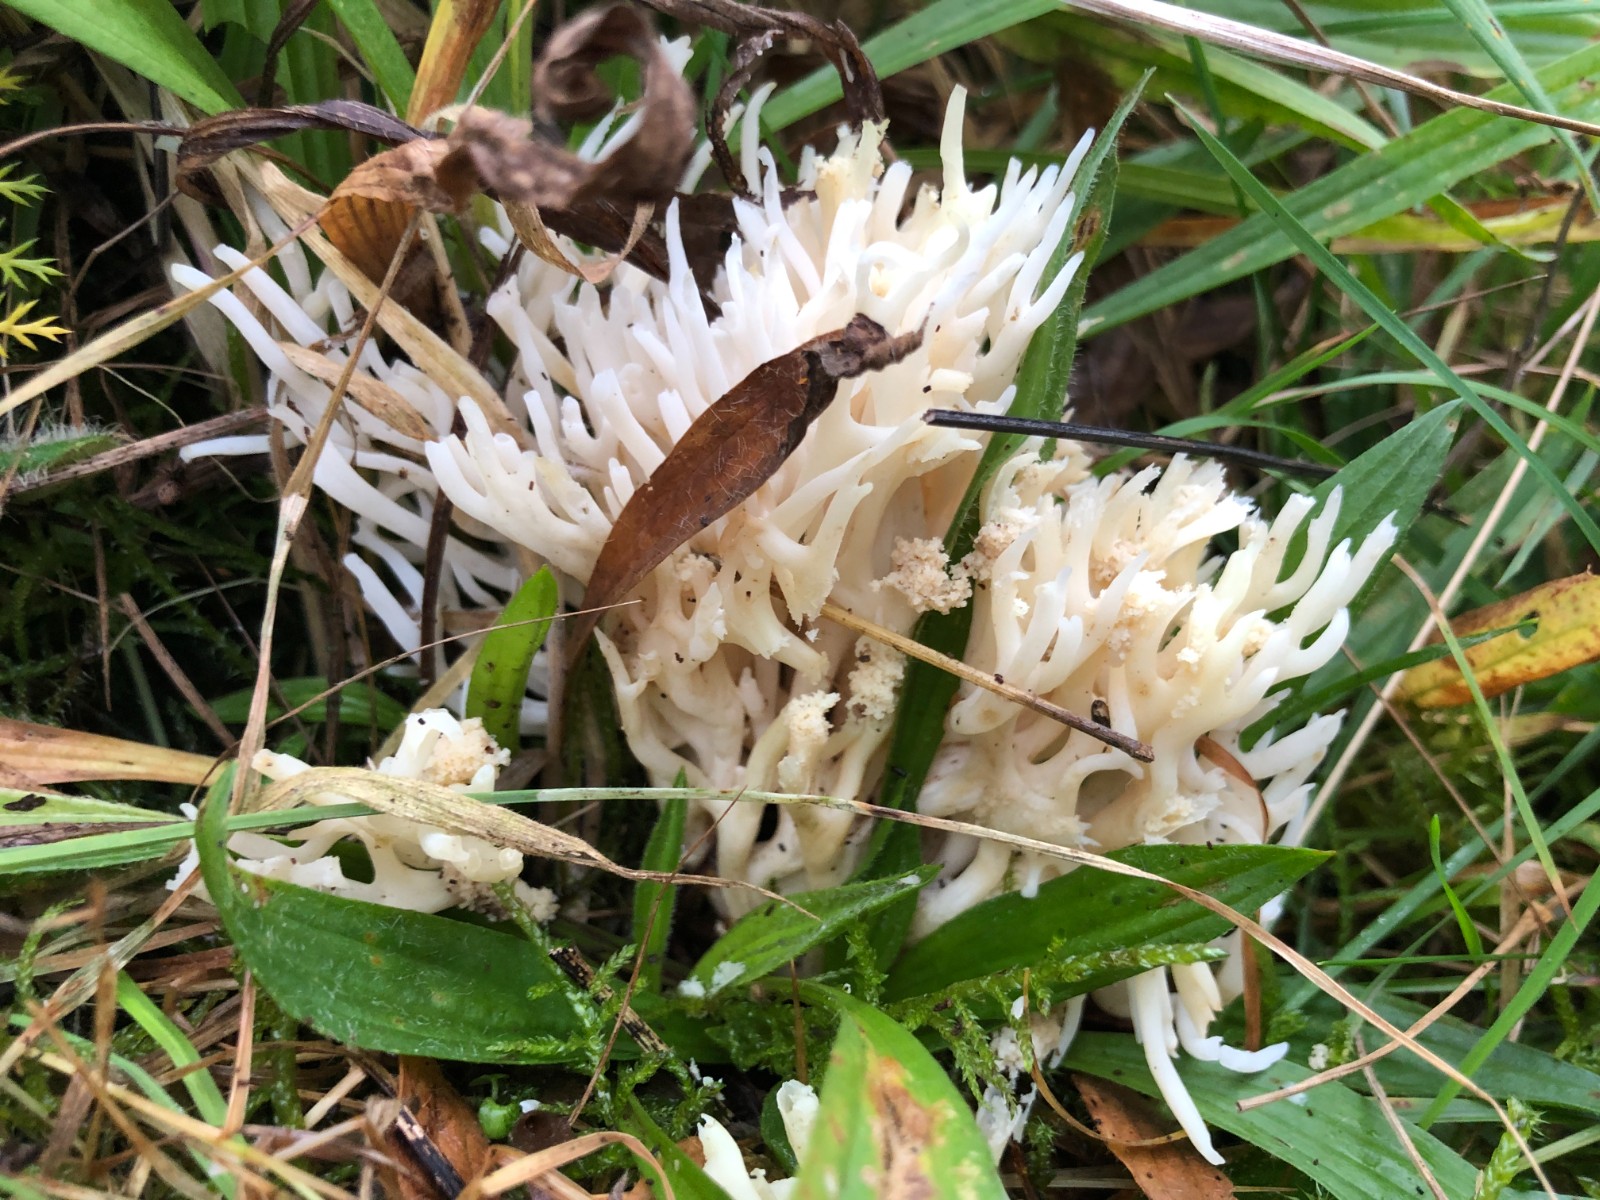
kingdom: Fungi
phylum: Basidiomycota
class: Agaricomycetes
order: Agaricales
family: Clavariaceae
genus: Ramariopsis
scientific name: Ramariopsis robusta
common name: tykgrenet køllesvamp
